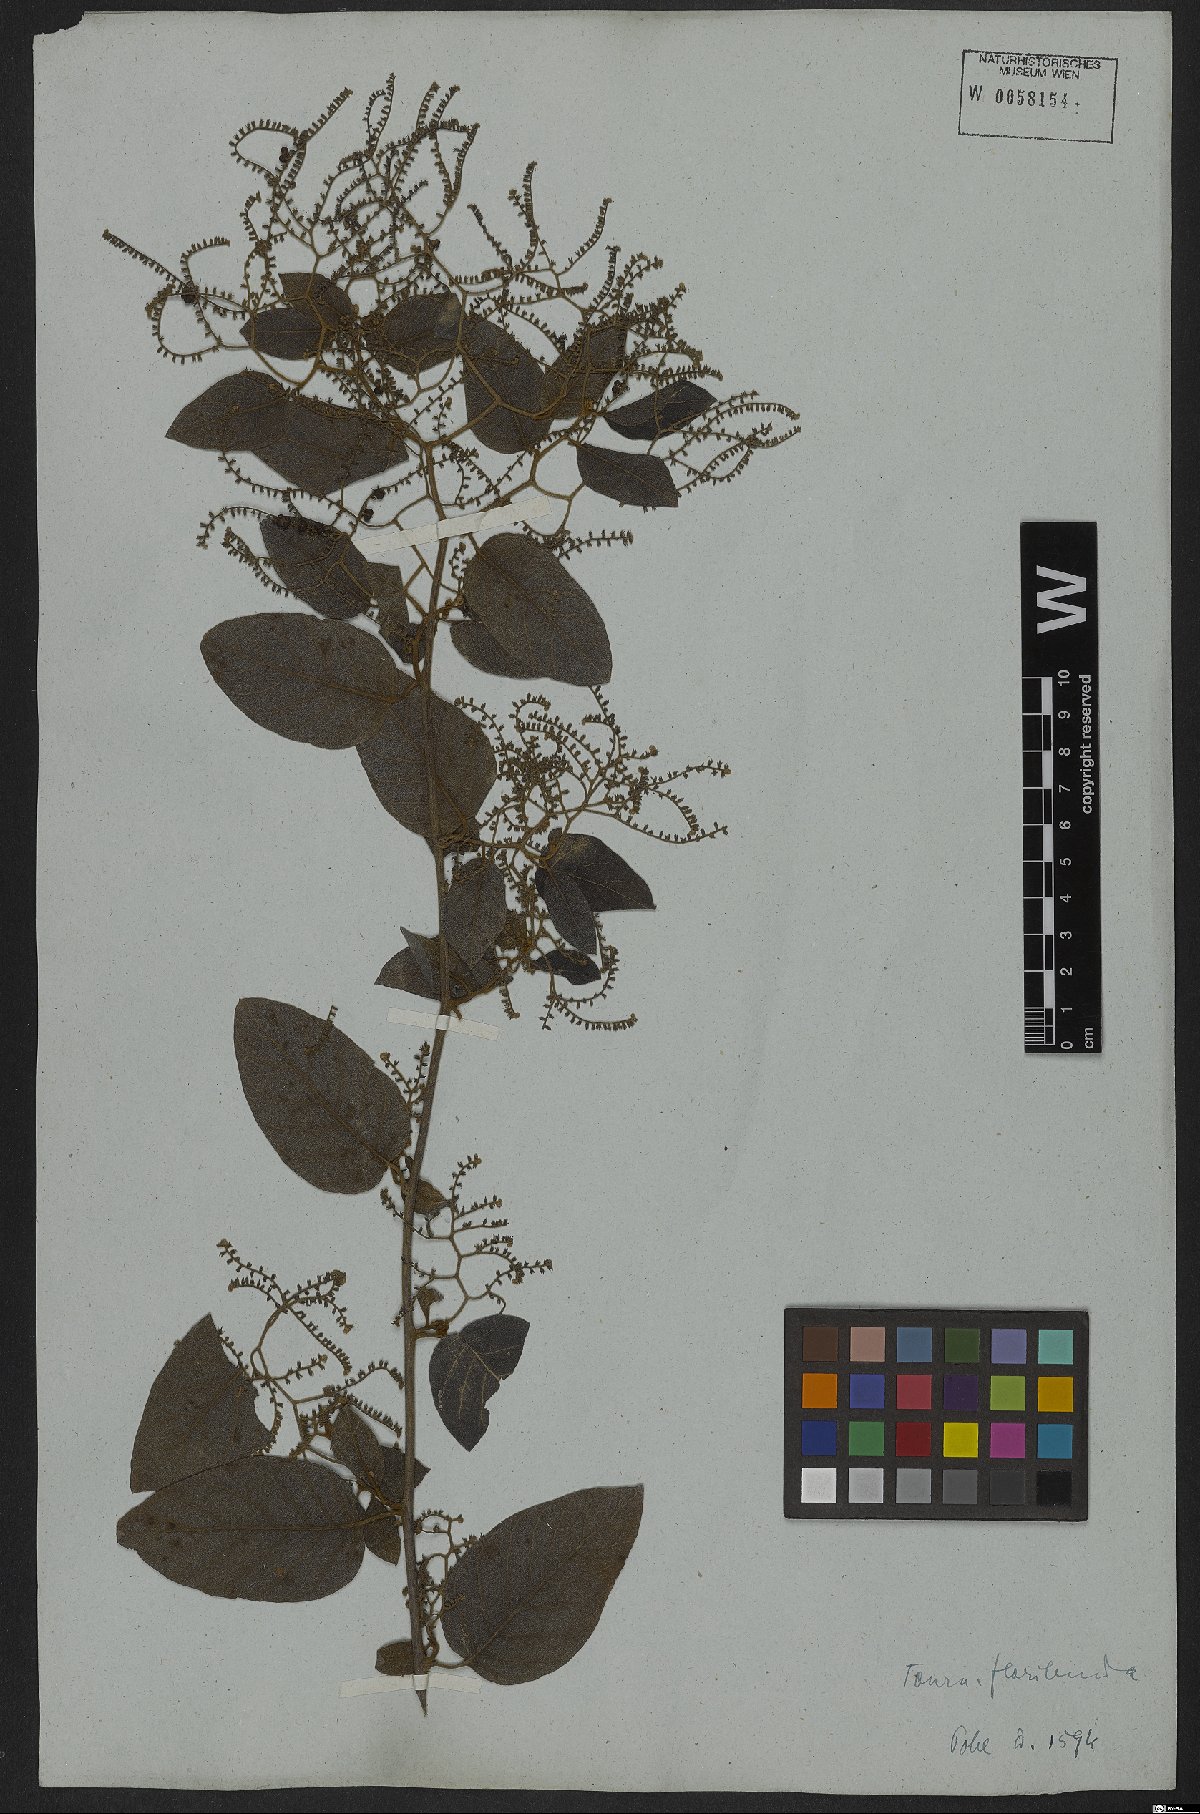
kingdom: Plantae
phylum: Tracheophyta
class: Magnoliopsida
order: Boraginales
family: Heliotropiaceae
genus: Myriopus
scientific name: Myriopus volubilis
